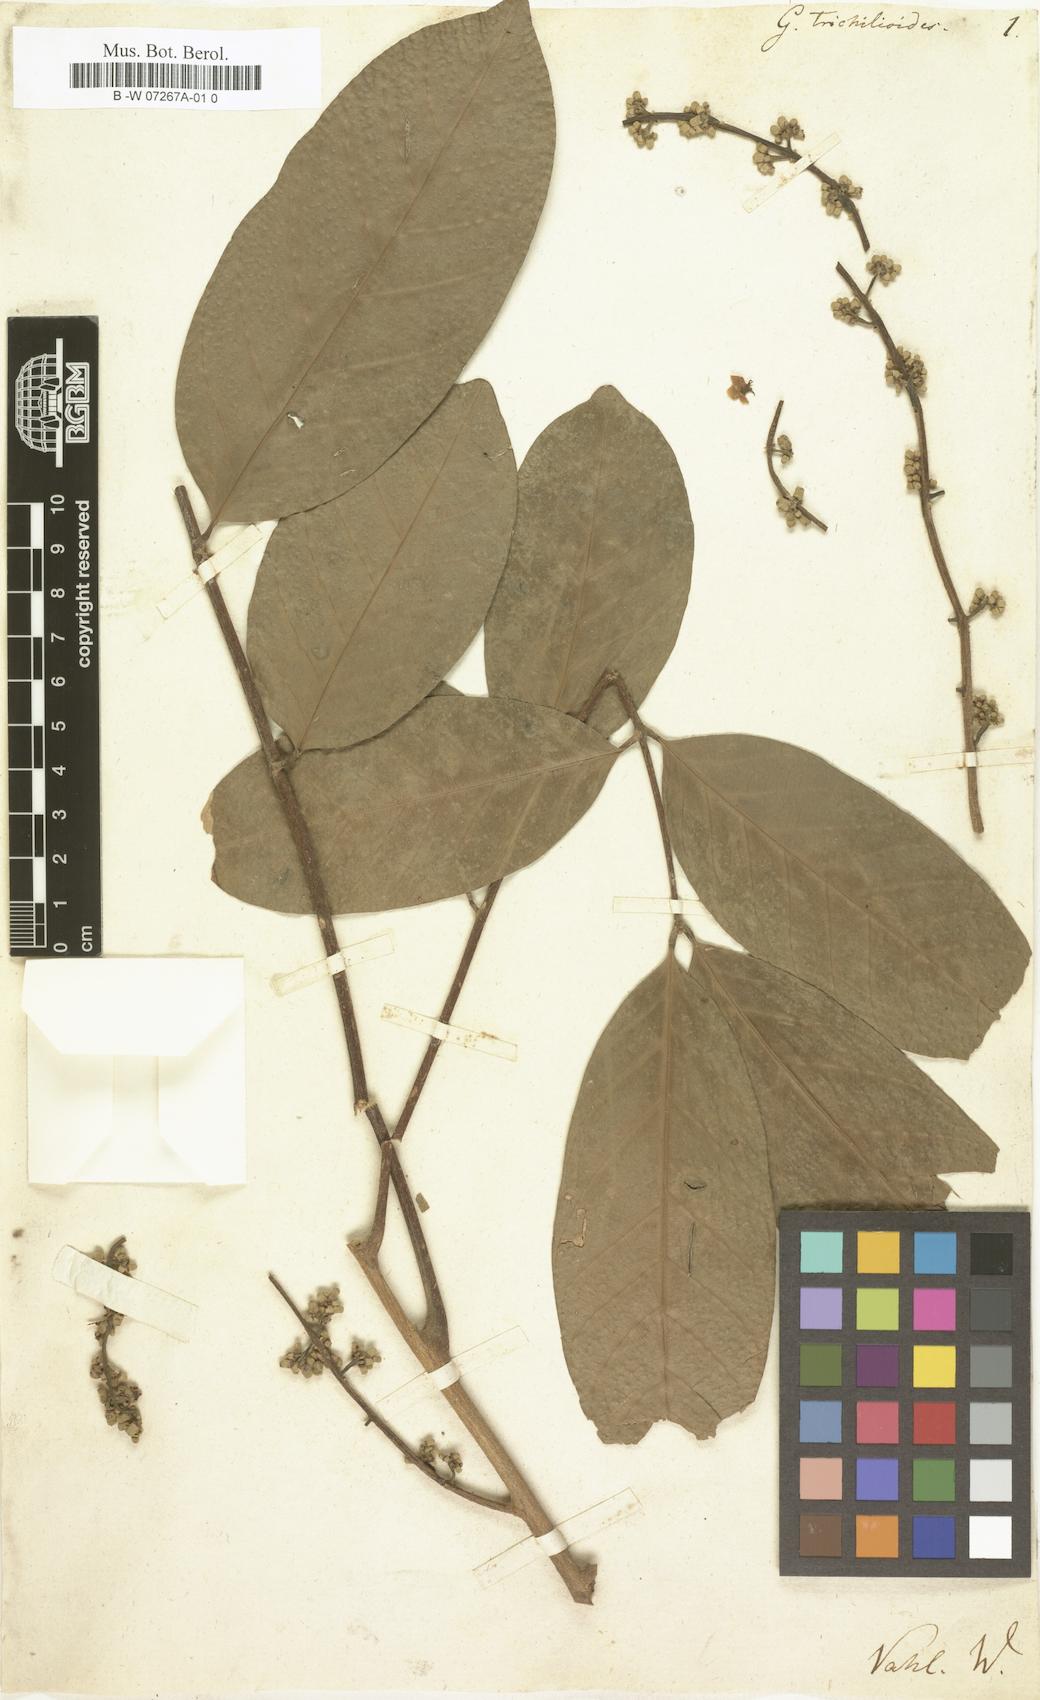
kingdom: Plantae
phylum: Tracheophyta
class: Magnoliopsida
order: Sapindales
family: Meliaceae
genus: Guarea
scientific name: Guarea guidonia
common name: American muskwood
